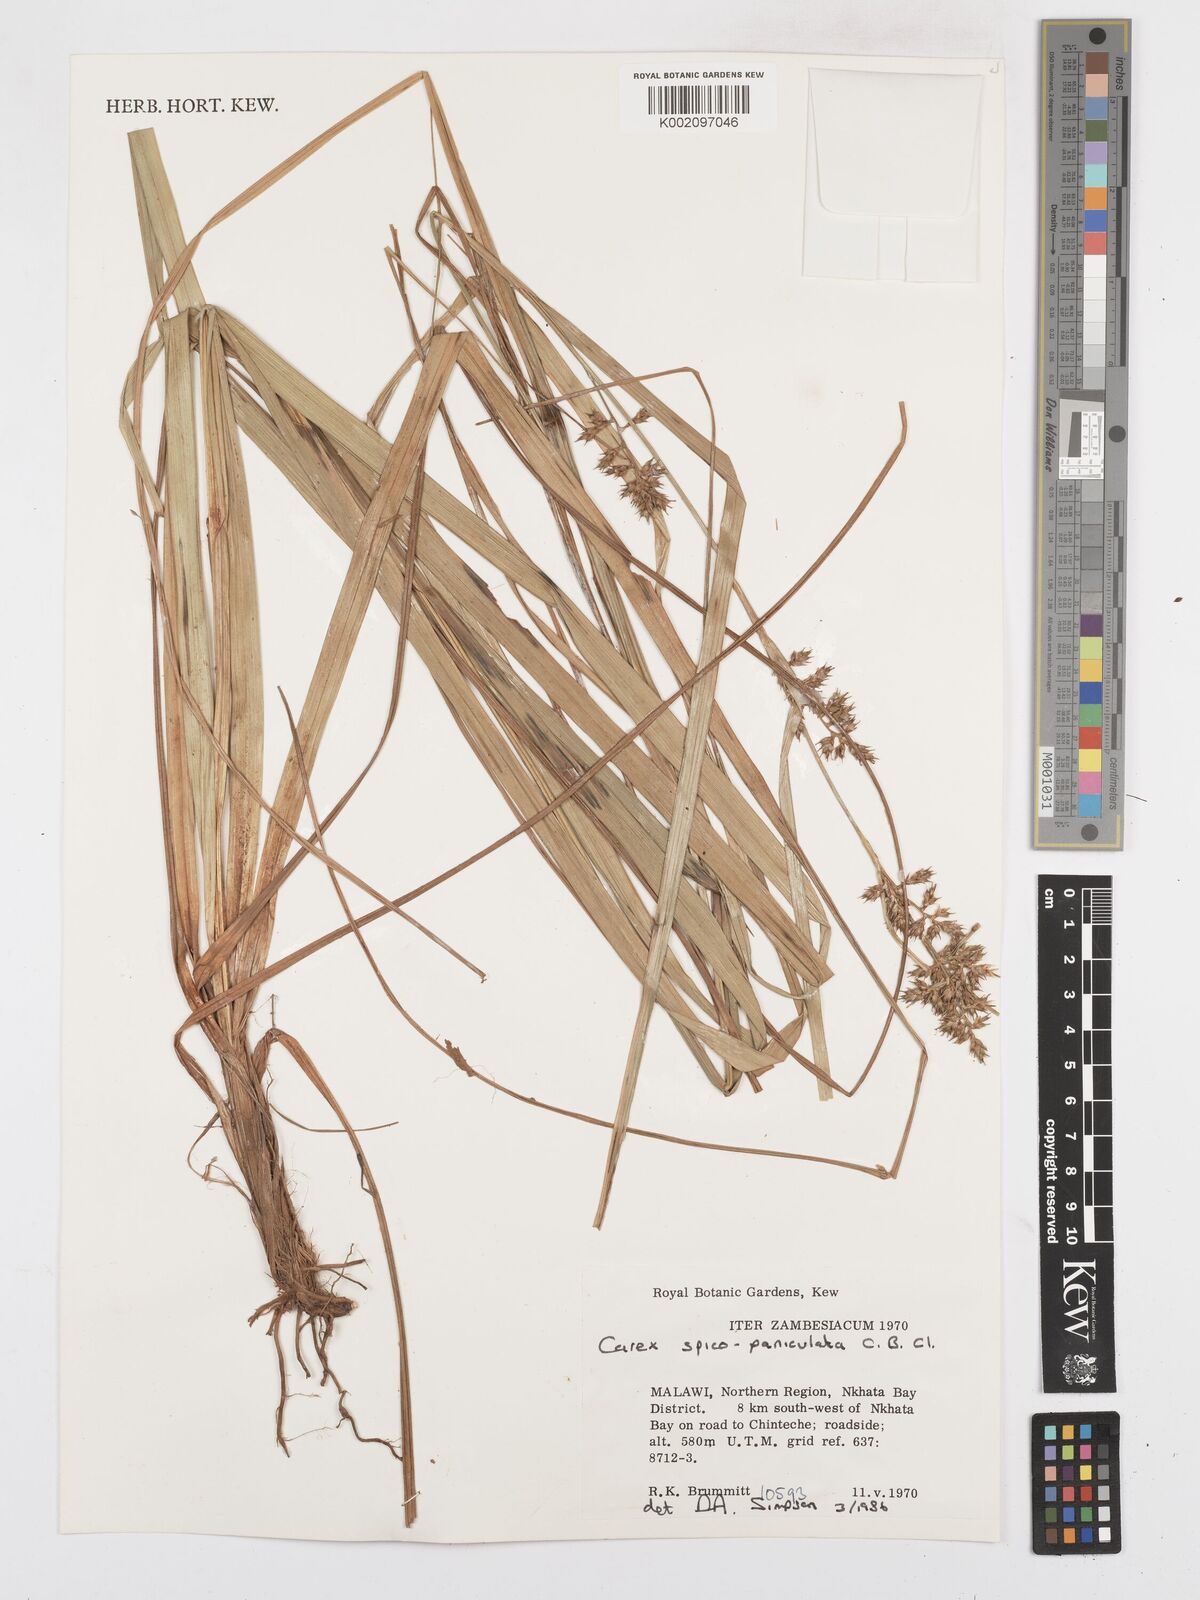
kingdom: Plantae
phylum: Tracheophyta
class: Liliopsida
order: Poales
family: Cyperaceae
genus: Carex
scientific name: Carex spicatopaniculata
